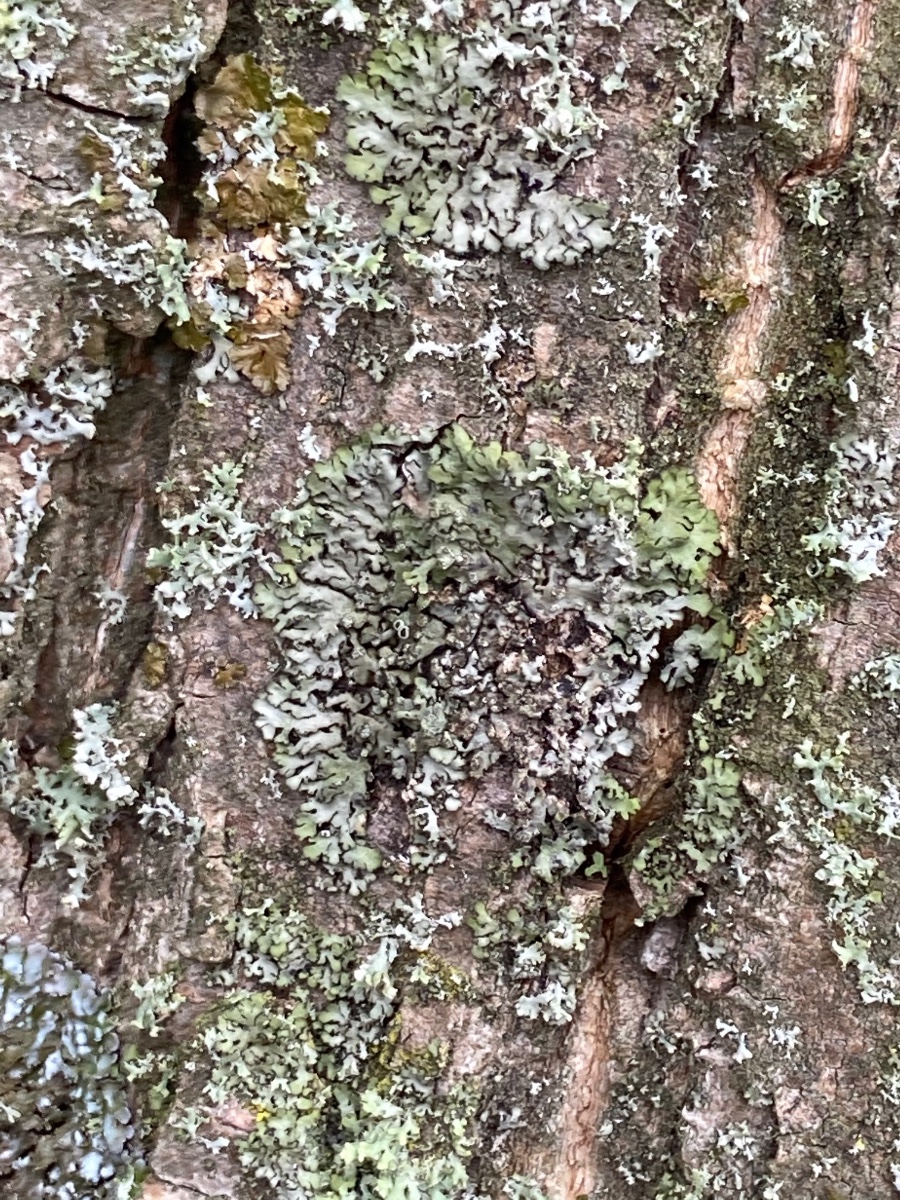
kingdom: Fungi
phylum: Ascomycota
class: Lecanoromycetes
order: Caliciales
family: Physciaceae
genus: Phaeophyscia
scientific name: Phaeophyscia orbicularis
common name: grågrøn rosetlav
